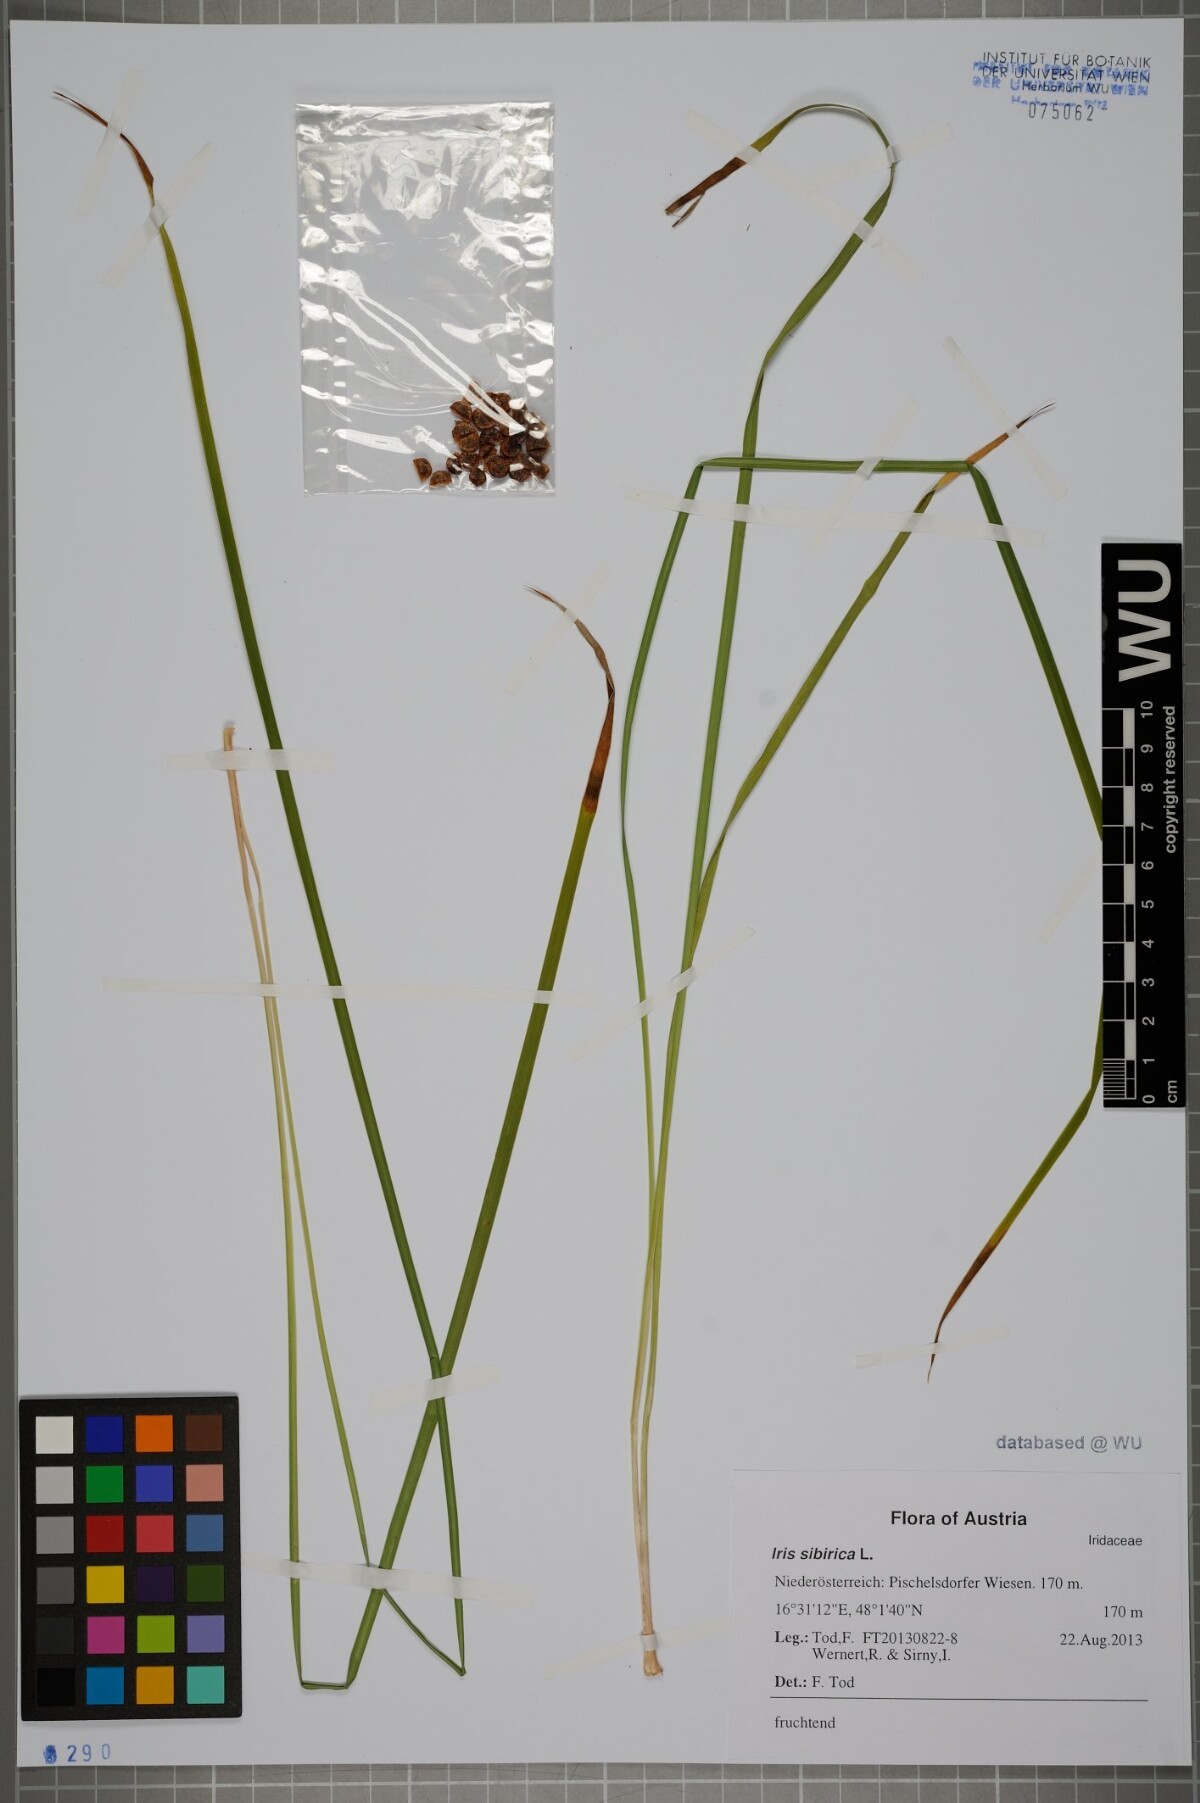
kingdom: Plantae
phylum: Tracheophyta
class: Liliopsida
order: Asparagales
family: Iridaceae
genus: Iris
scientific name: Iris sibirica
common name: Siberian iris
